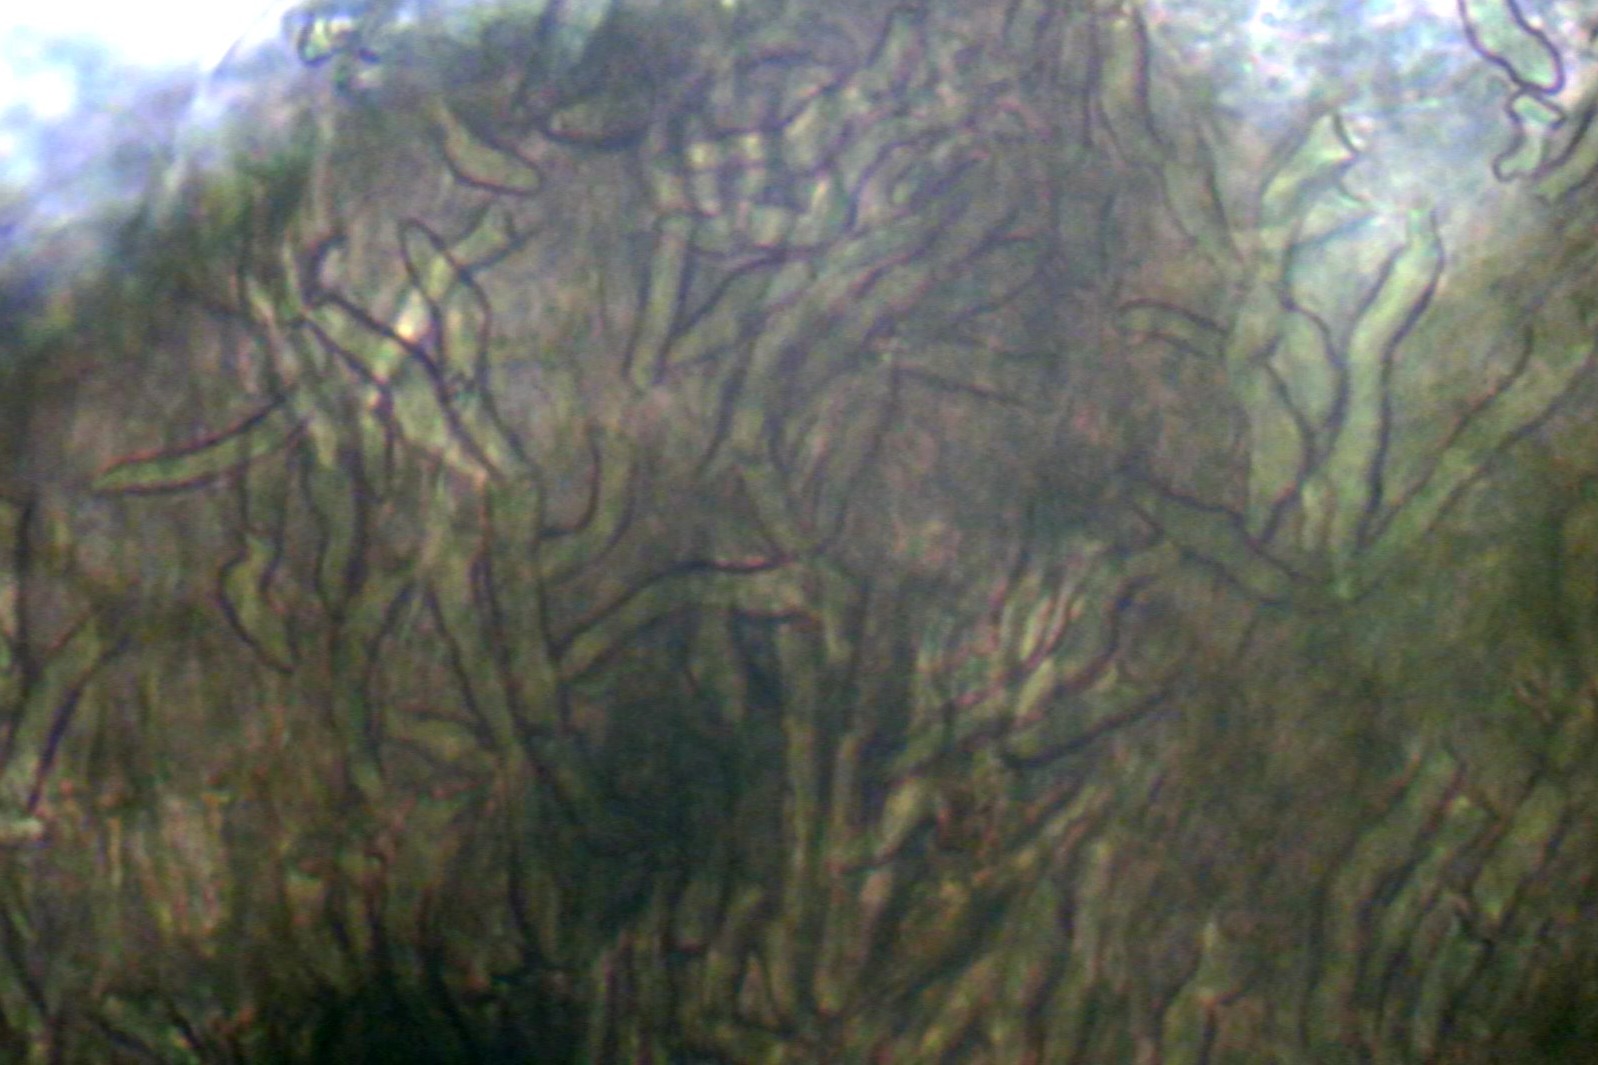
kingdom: Fungi
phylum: Ascomycota
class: Leotiomycetes
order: Helotiales
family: Hyaloscyphaceae
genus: Hyalopeziza
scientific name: Hyalopeziza millepunctata
